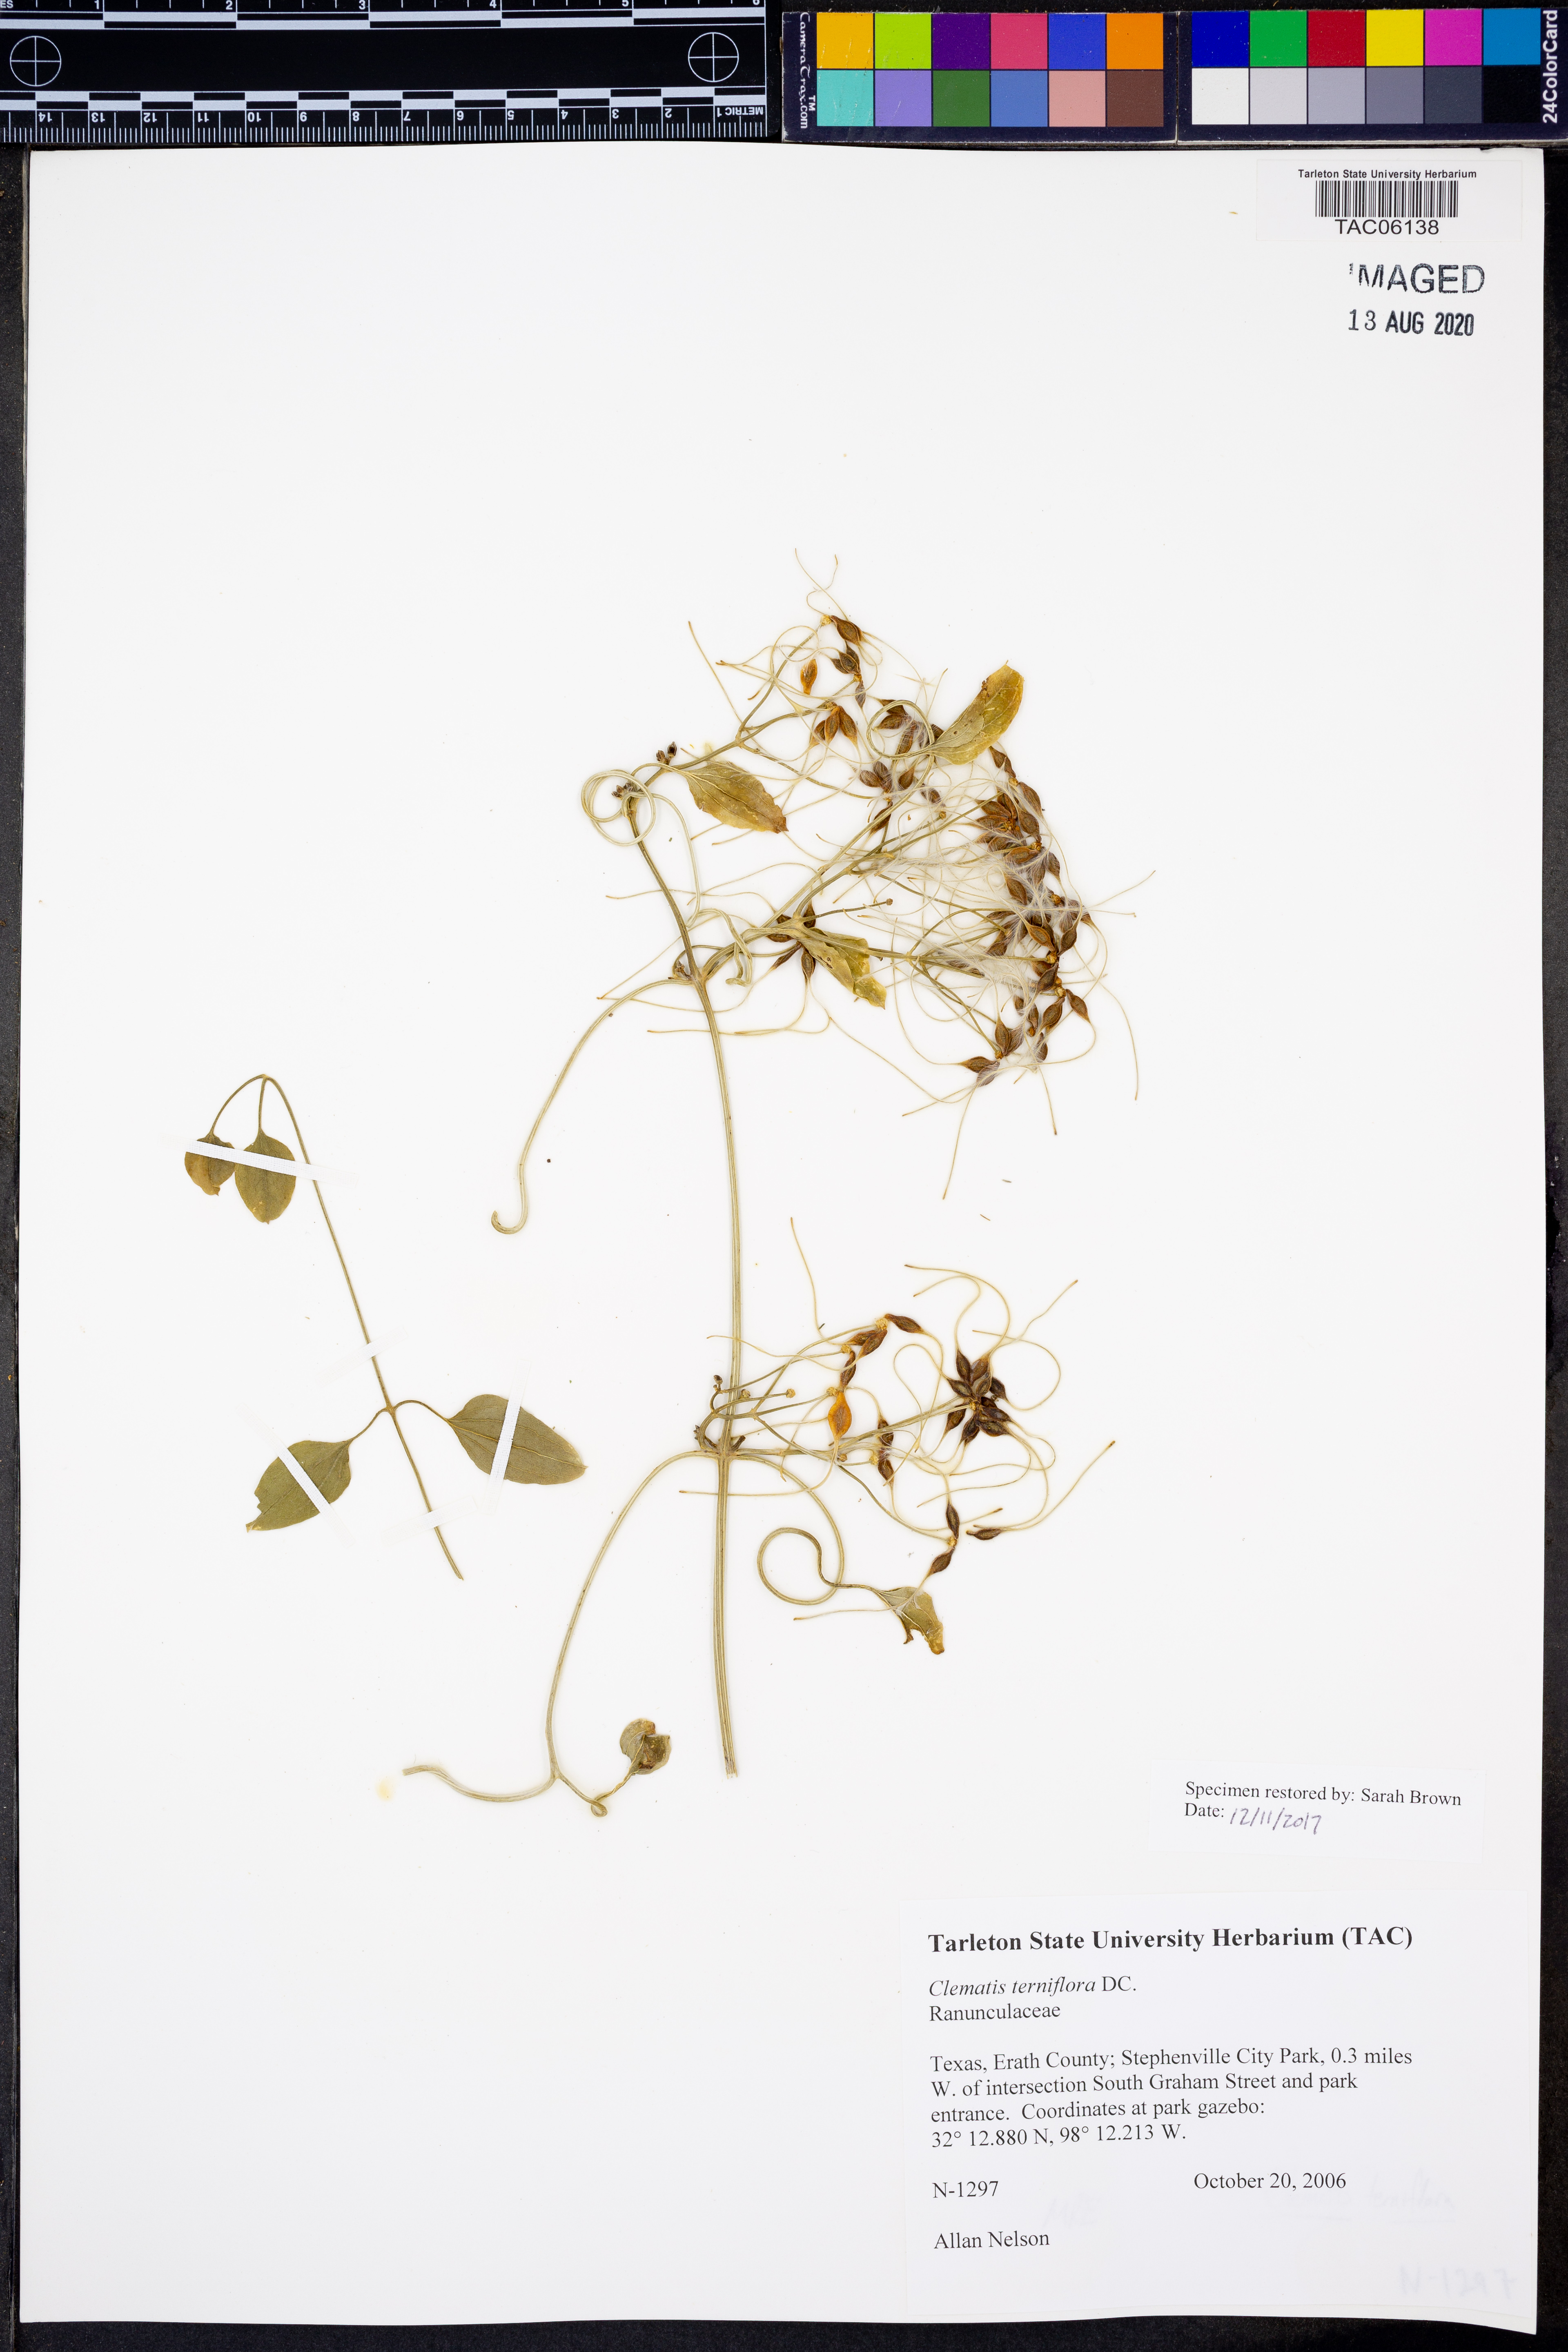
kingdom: Plantae
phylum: Tracheophyta
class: Magnoliopsida
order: Ranunculales
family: Ranunculaceae
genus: Clematis
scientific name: Clematis terniflora
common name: Sweet autumn clematis
